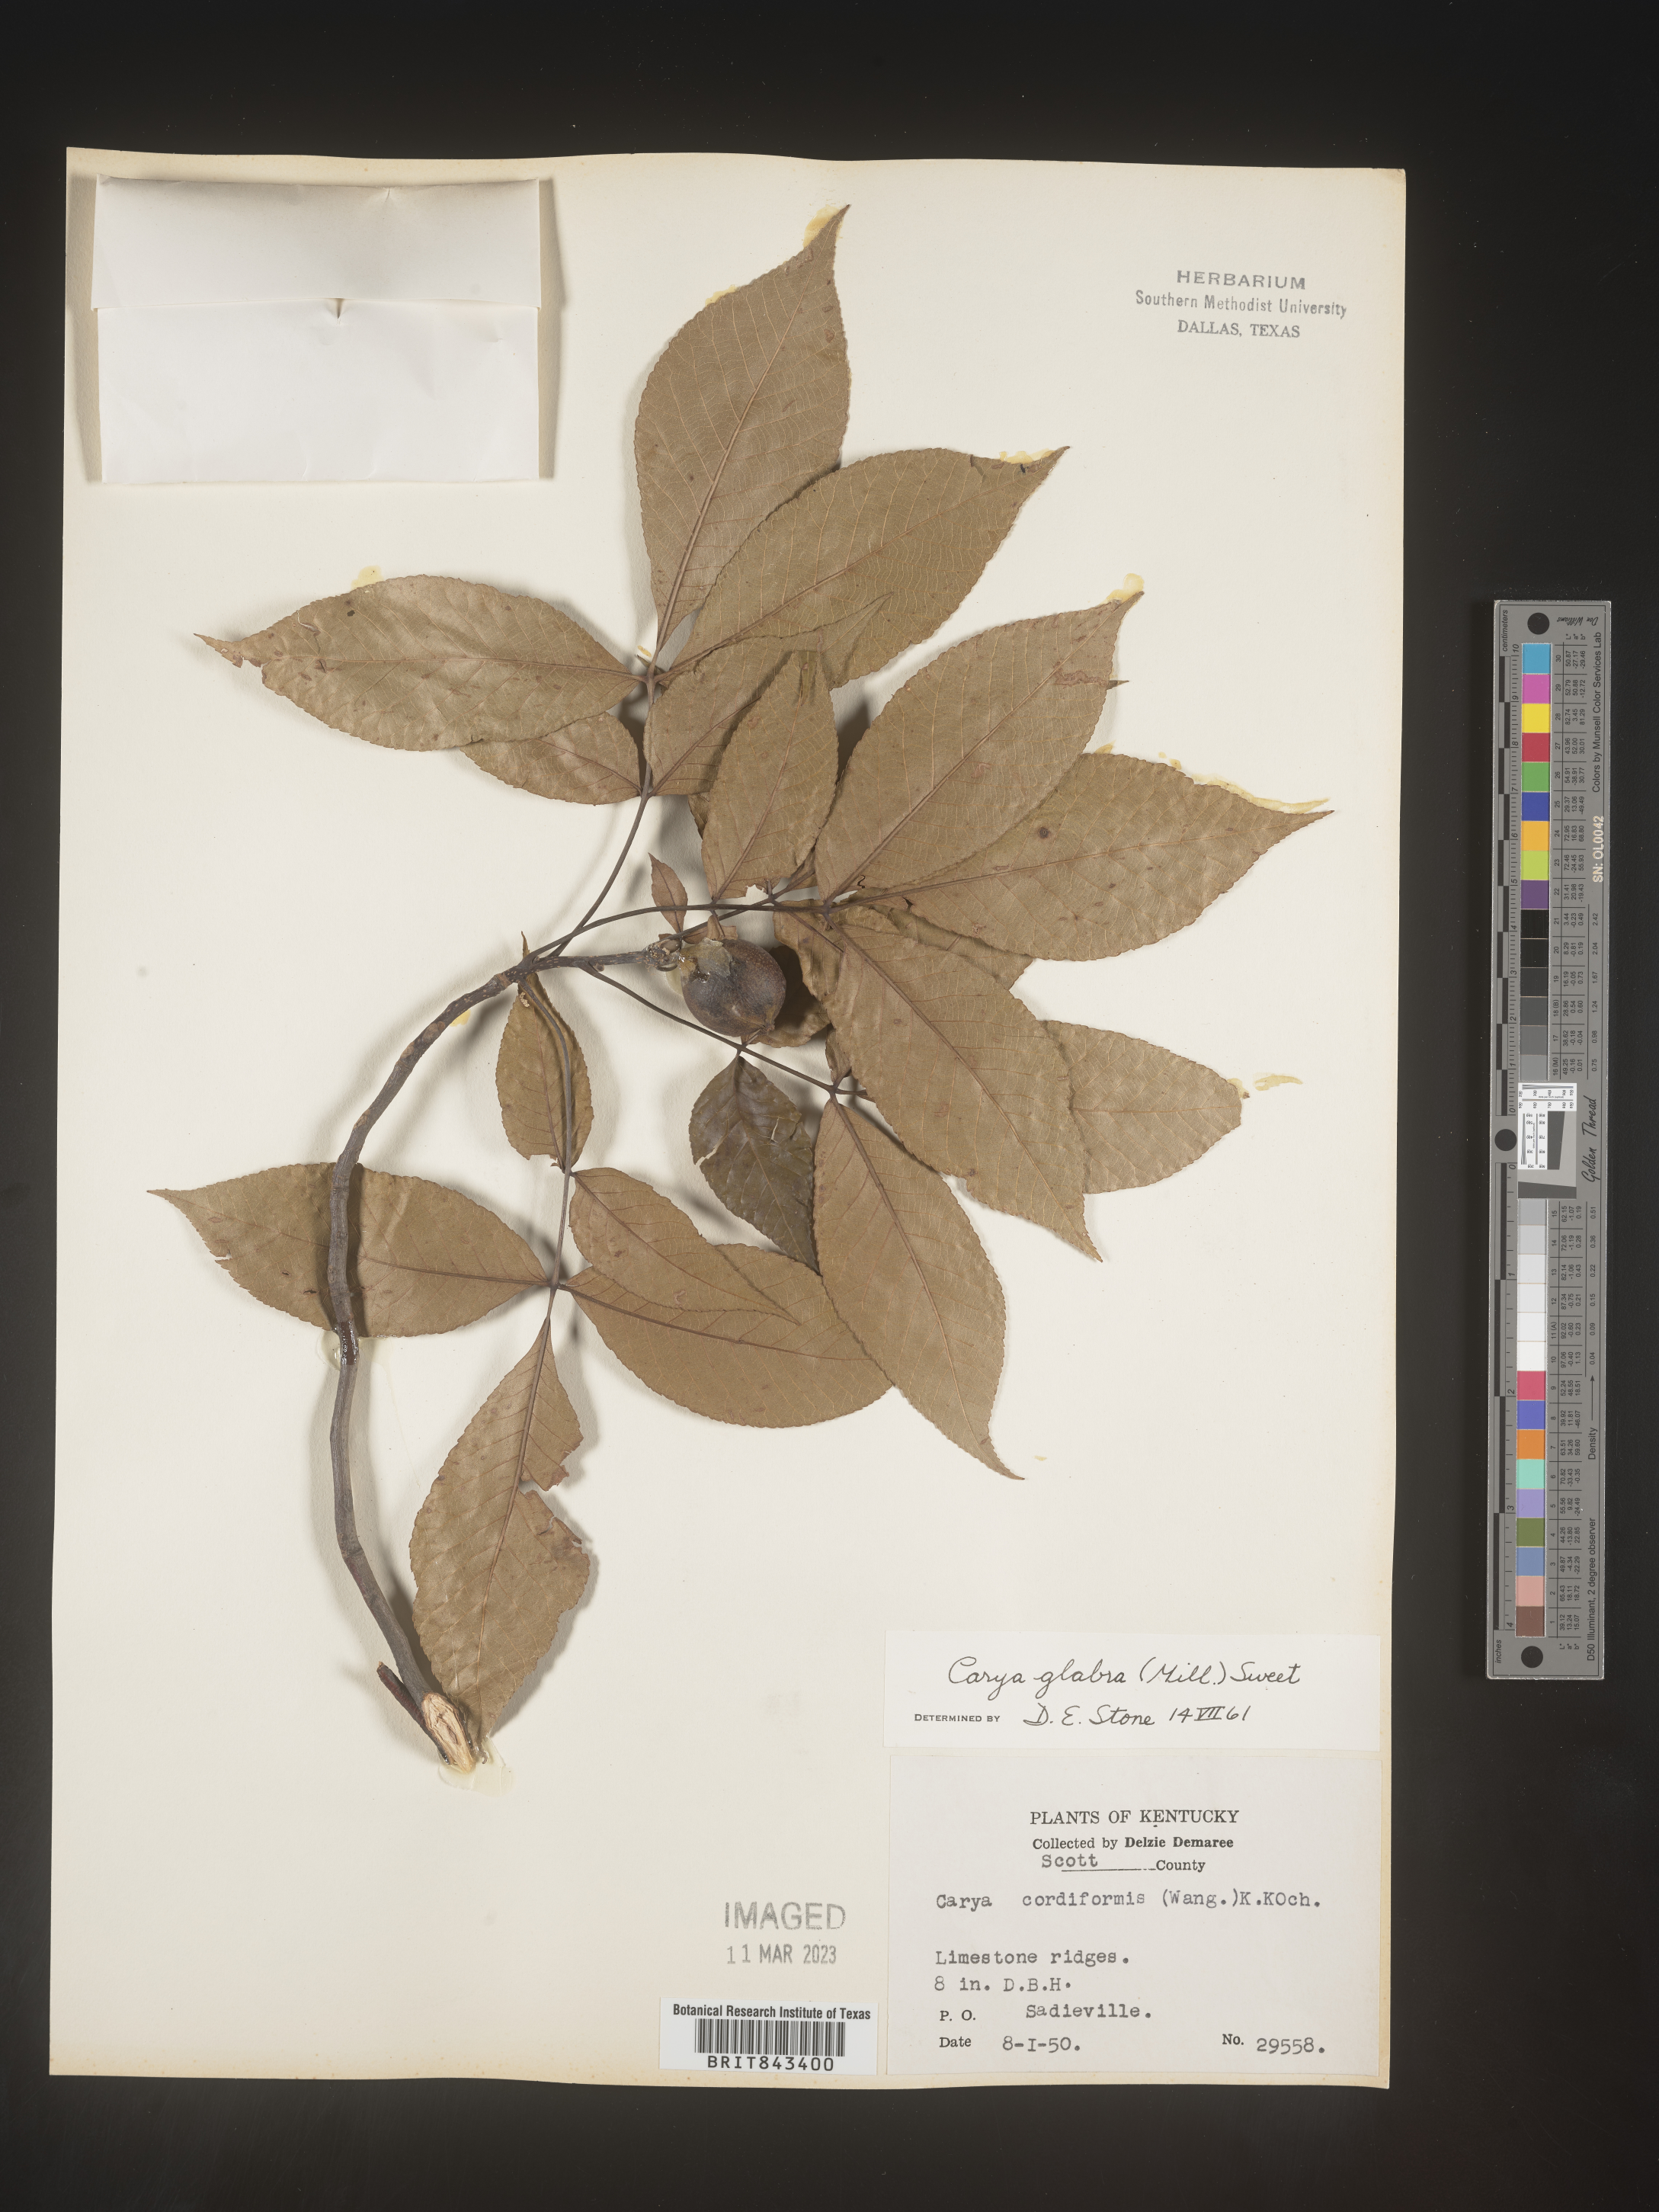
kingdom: Plantae
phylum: Tracheophyta
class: Magnoliopsida
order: Fagales
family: Juglandaceae
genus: Carya
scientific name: Carya glabra
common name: Pignut hickory
